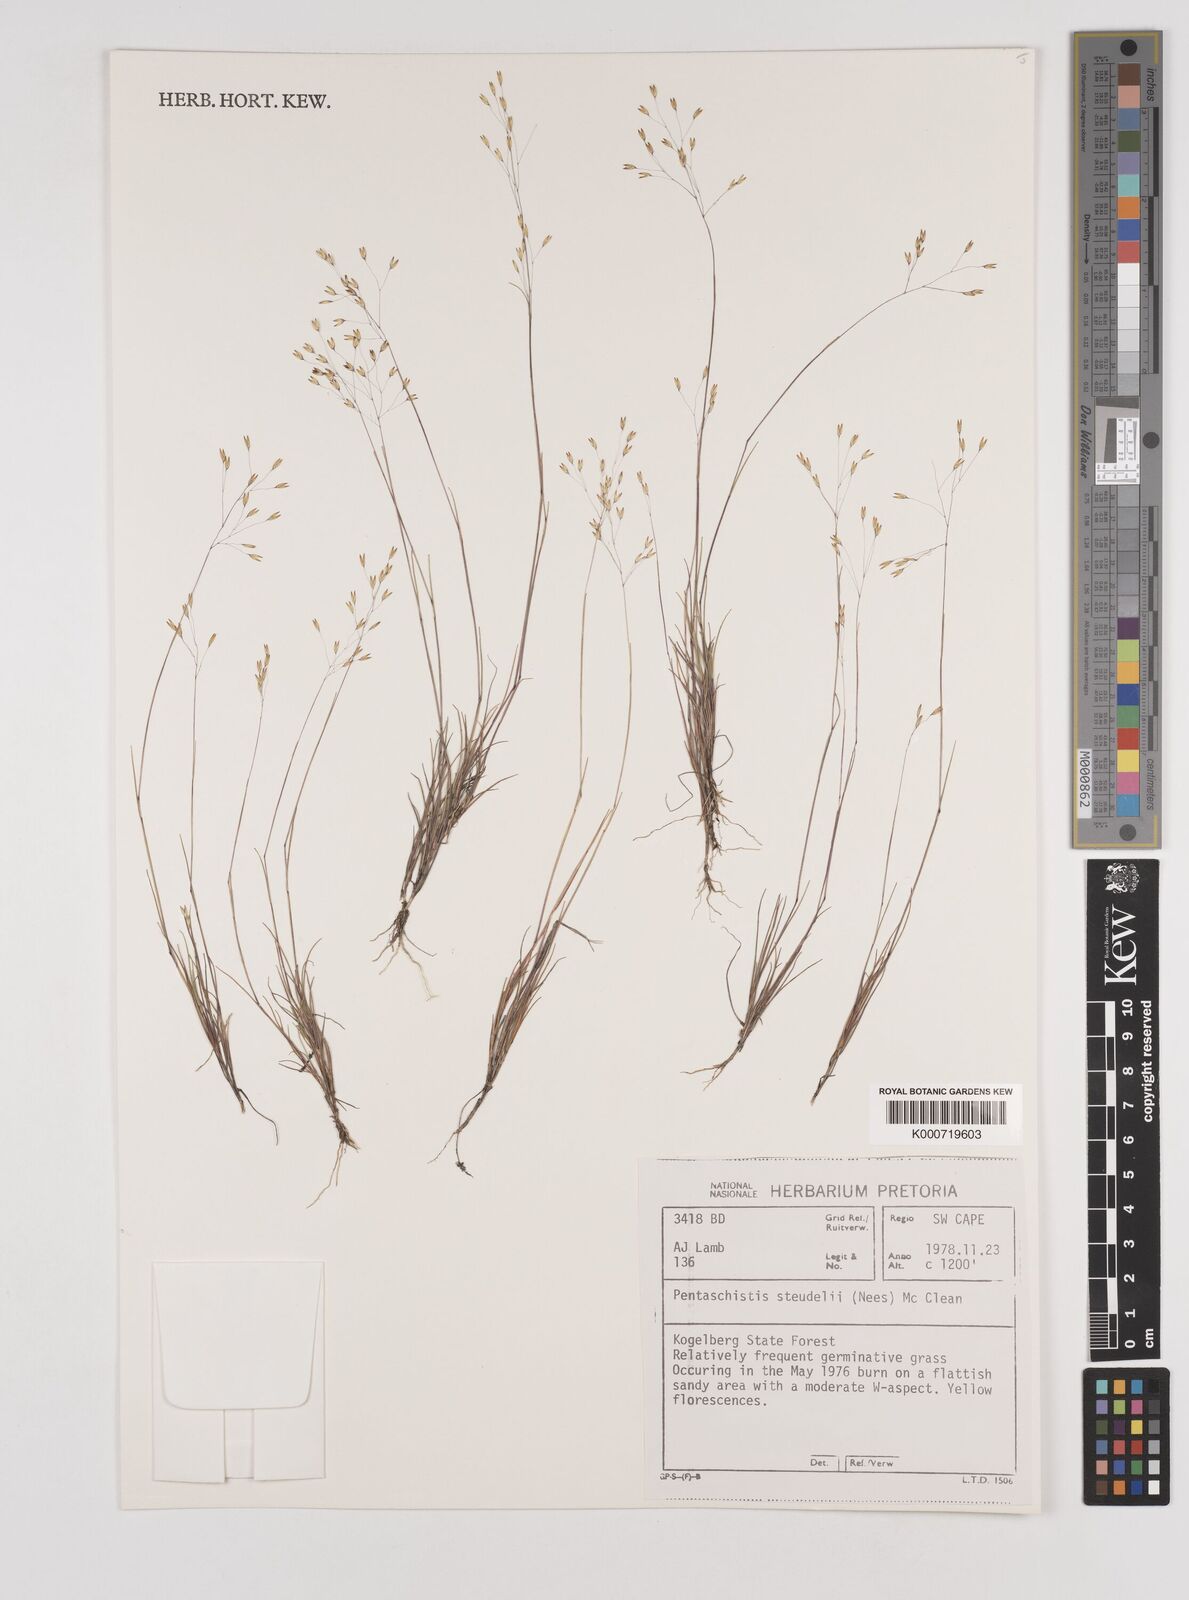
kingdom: Plantae
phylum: Tracheophyta
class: Liliopsida
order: Poales
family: Poaceae
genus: Pentameris
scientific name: Pentameris malouinensis
